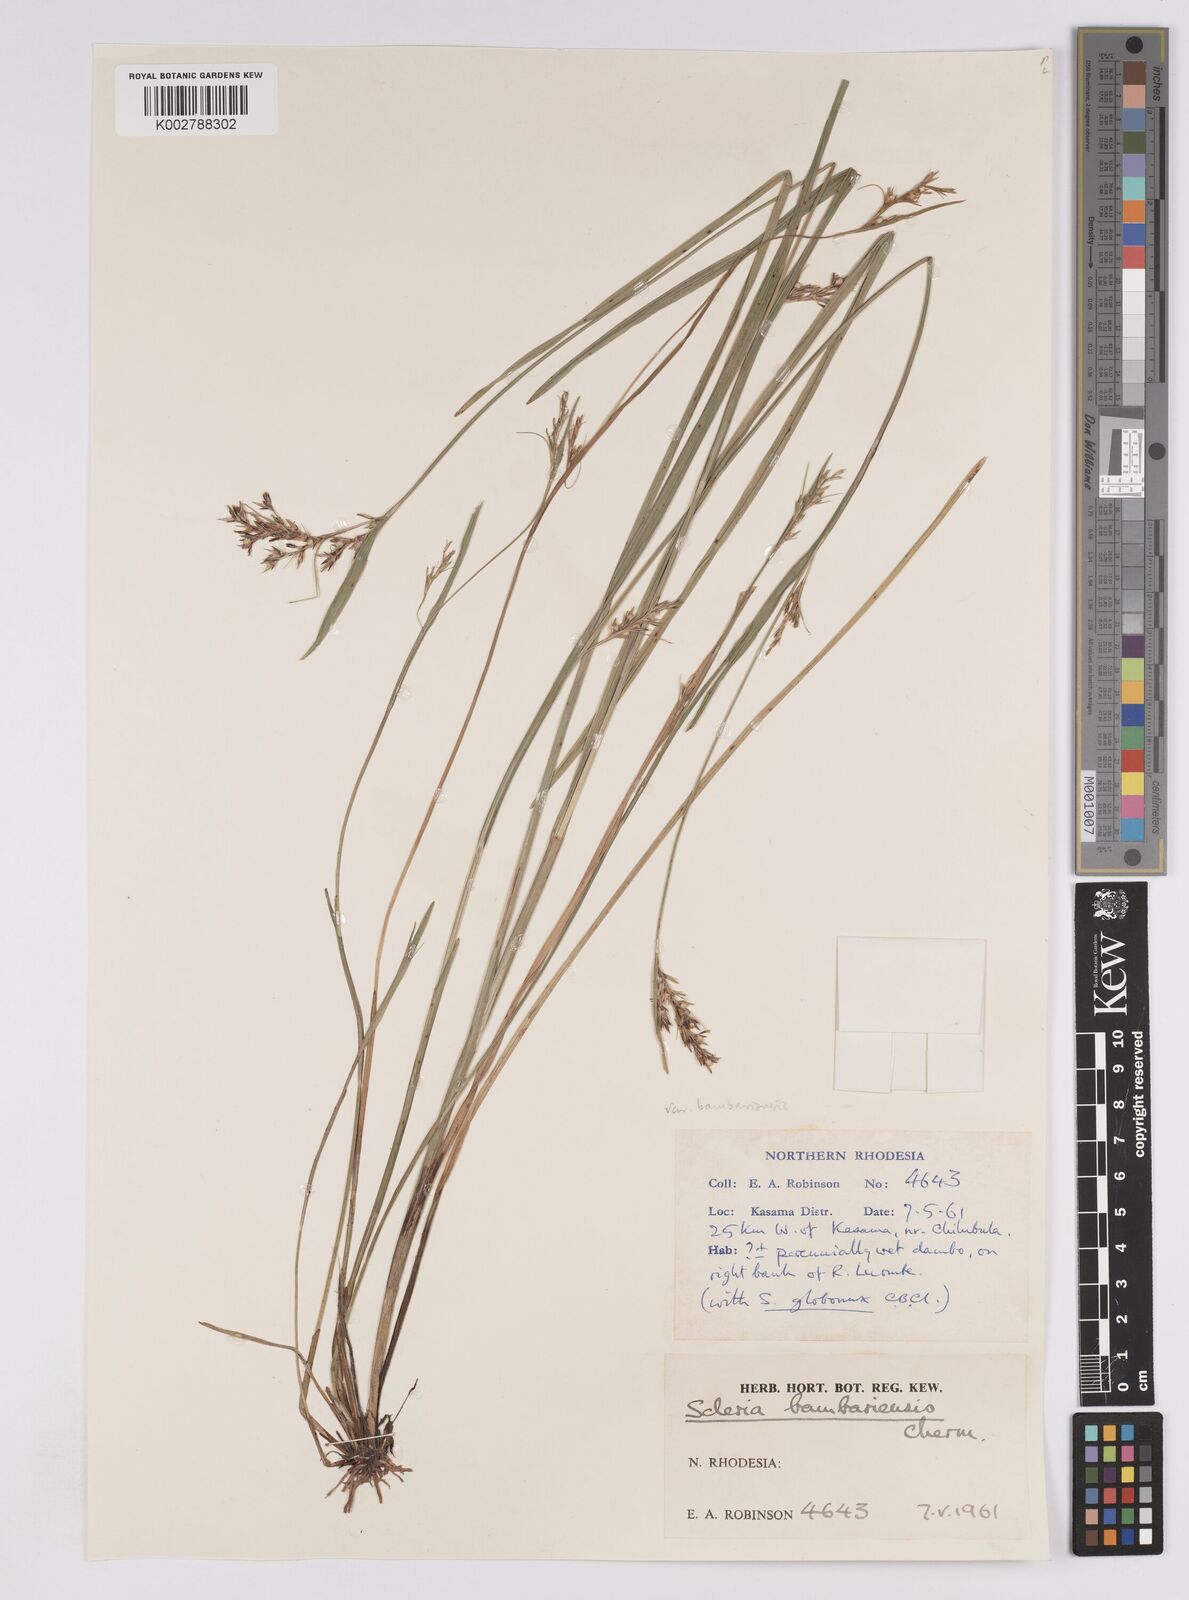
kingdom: Plantae
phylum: Tracheophyta
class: Liliopsida
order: Poales
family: Cyperaceae
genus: Scleria
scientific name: Scleria bambariensis
